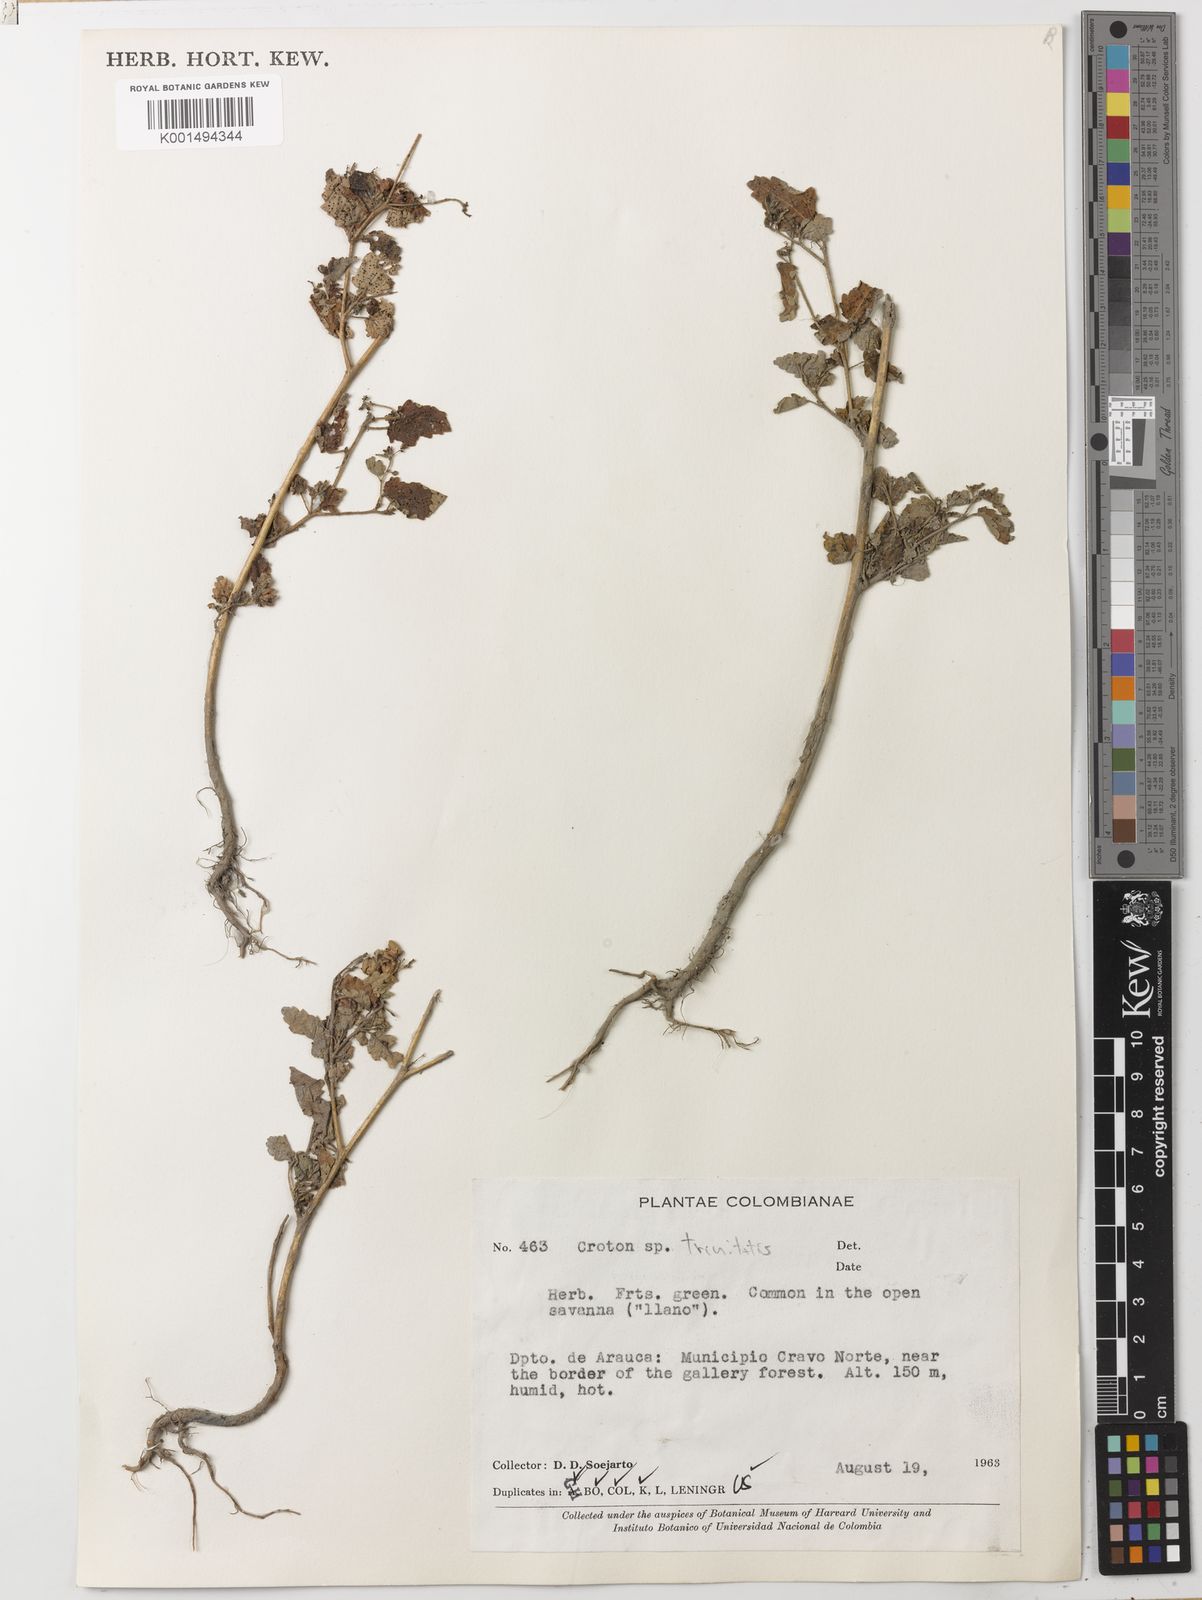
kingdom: Plantae
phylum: Tracheophyta
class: Magnoliopsida
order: Malpighiales
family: Euphorbiaceae
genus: Croton
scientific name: Croton trinitatis
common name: Roadside croton
